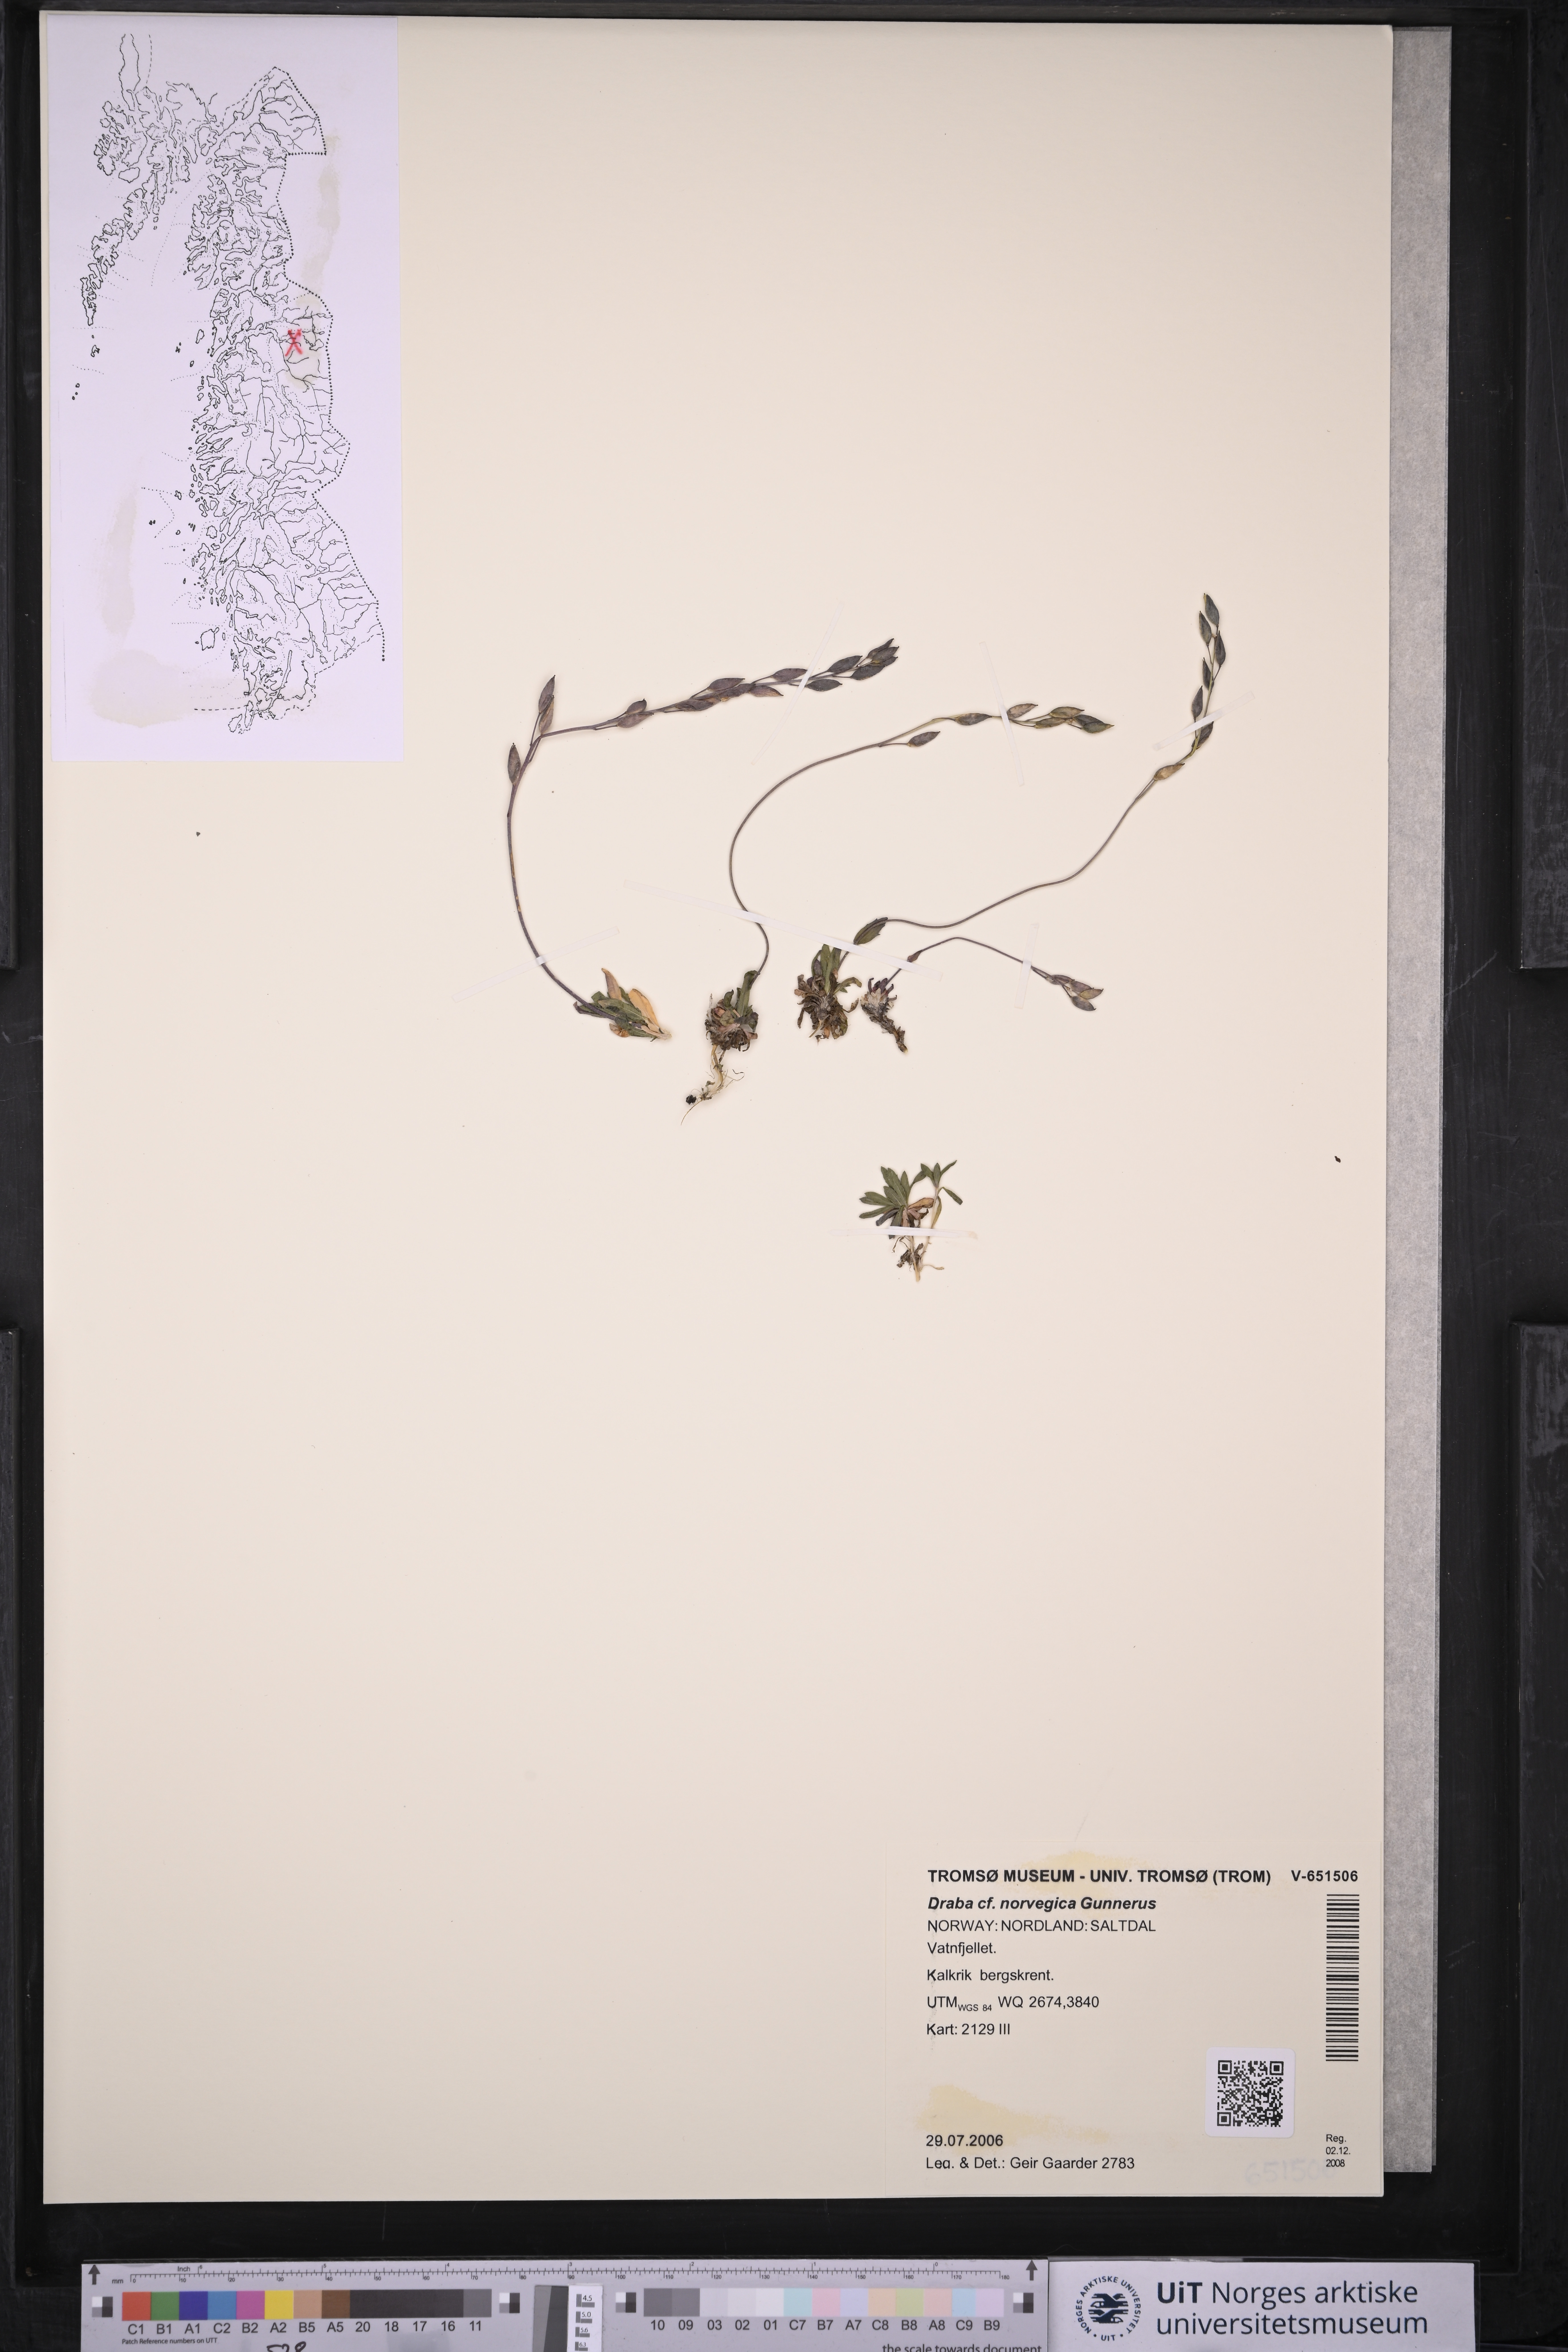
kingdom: Plantae
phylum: Tracheophyta
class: Magnoliopsida
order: Brassicales
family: Brassicaceae
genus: Draba
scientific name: Draba norvegica
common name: Rock whitlowgrass
